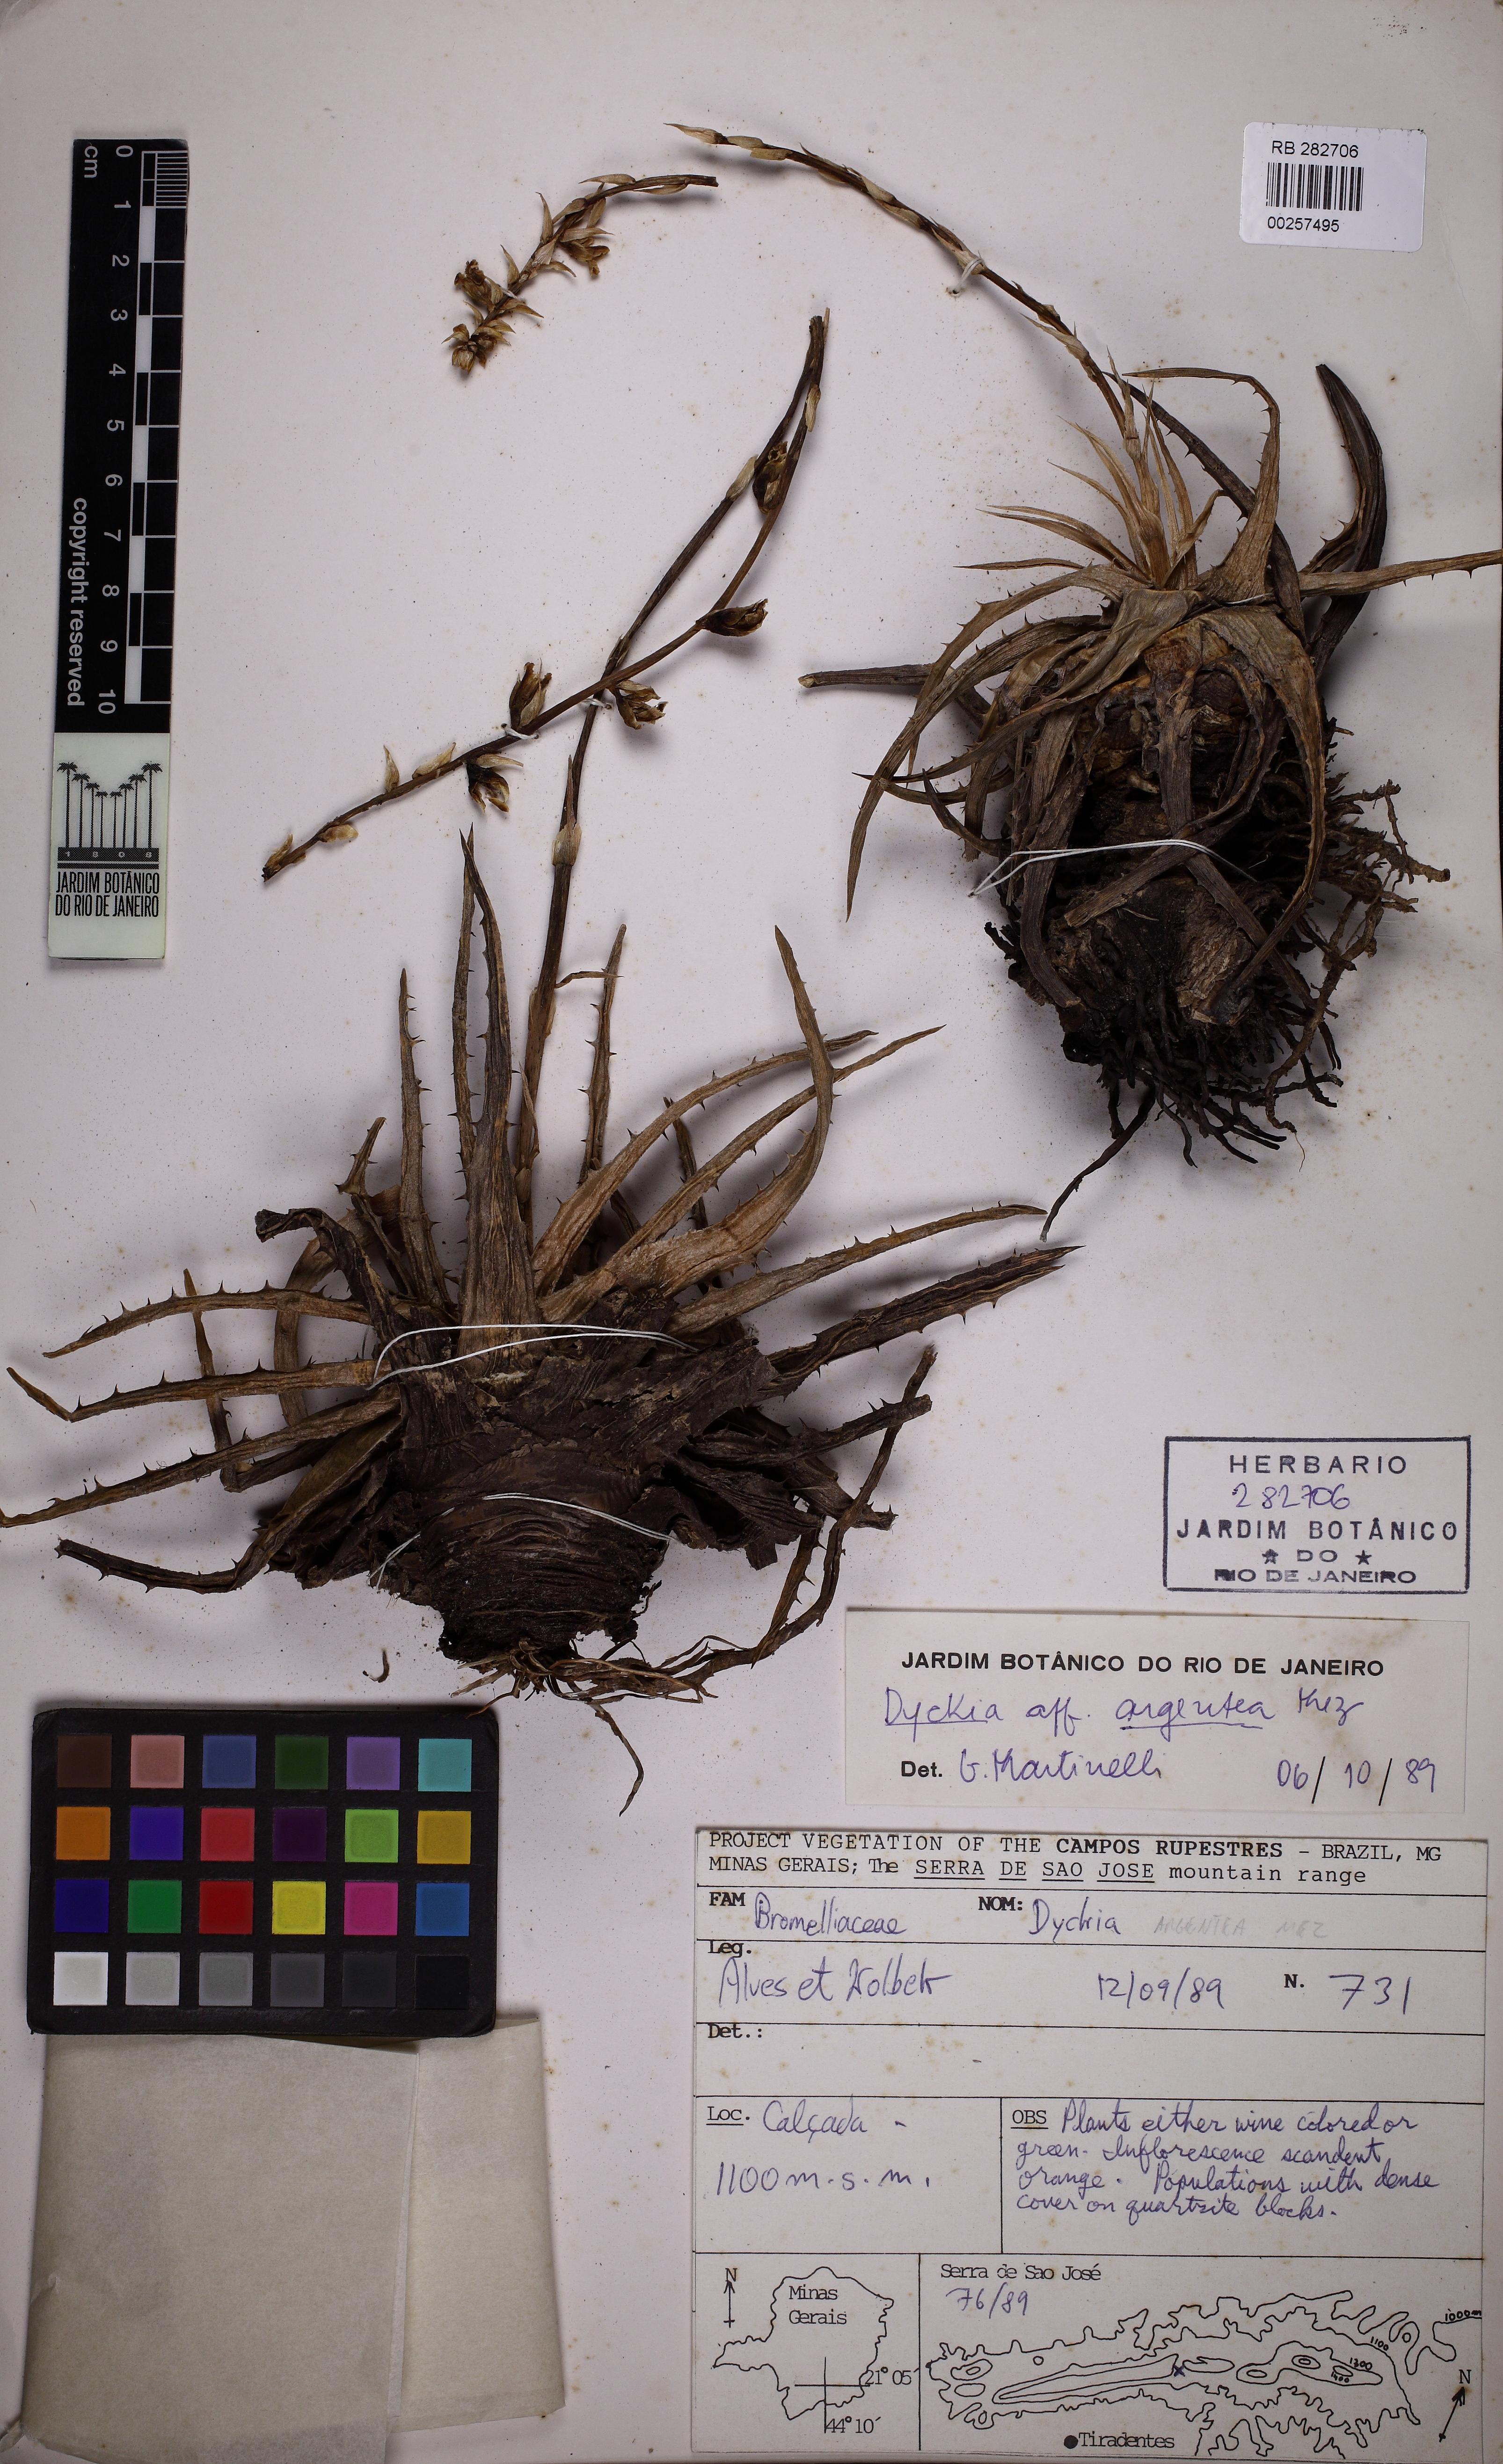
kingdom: Plantae
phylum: Tracheophyta
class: Liliopsida
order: Poales
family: Bromeliaceae
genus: Dyckia
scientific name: Dyckia mezii
